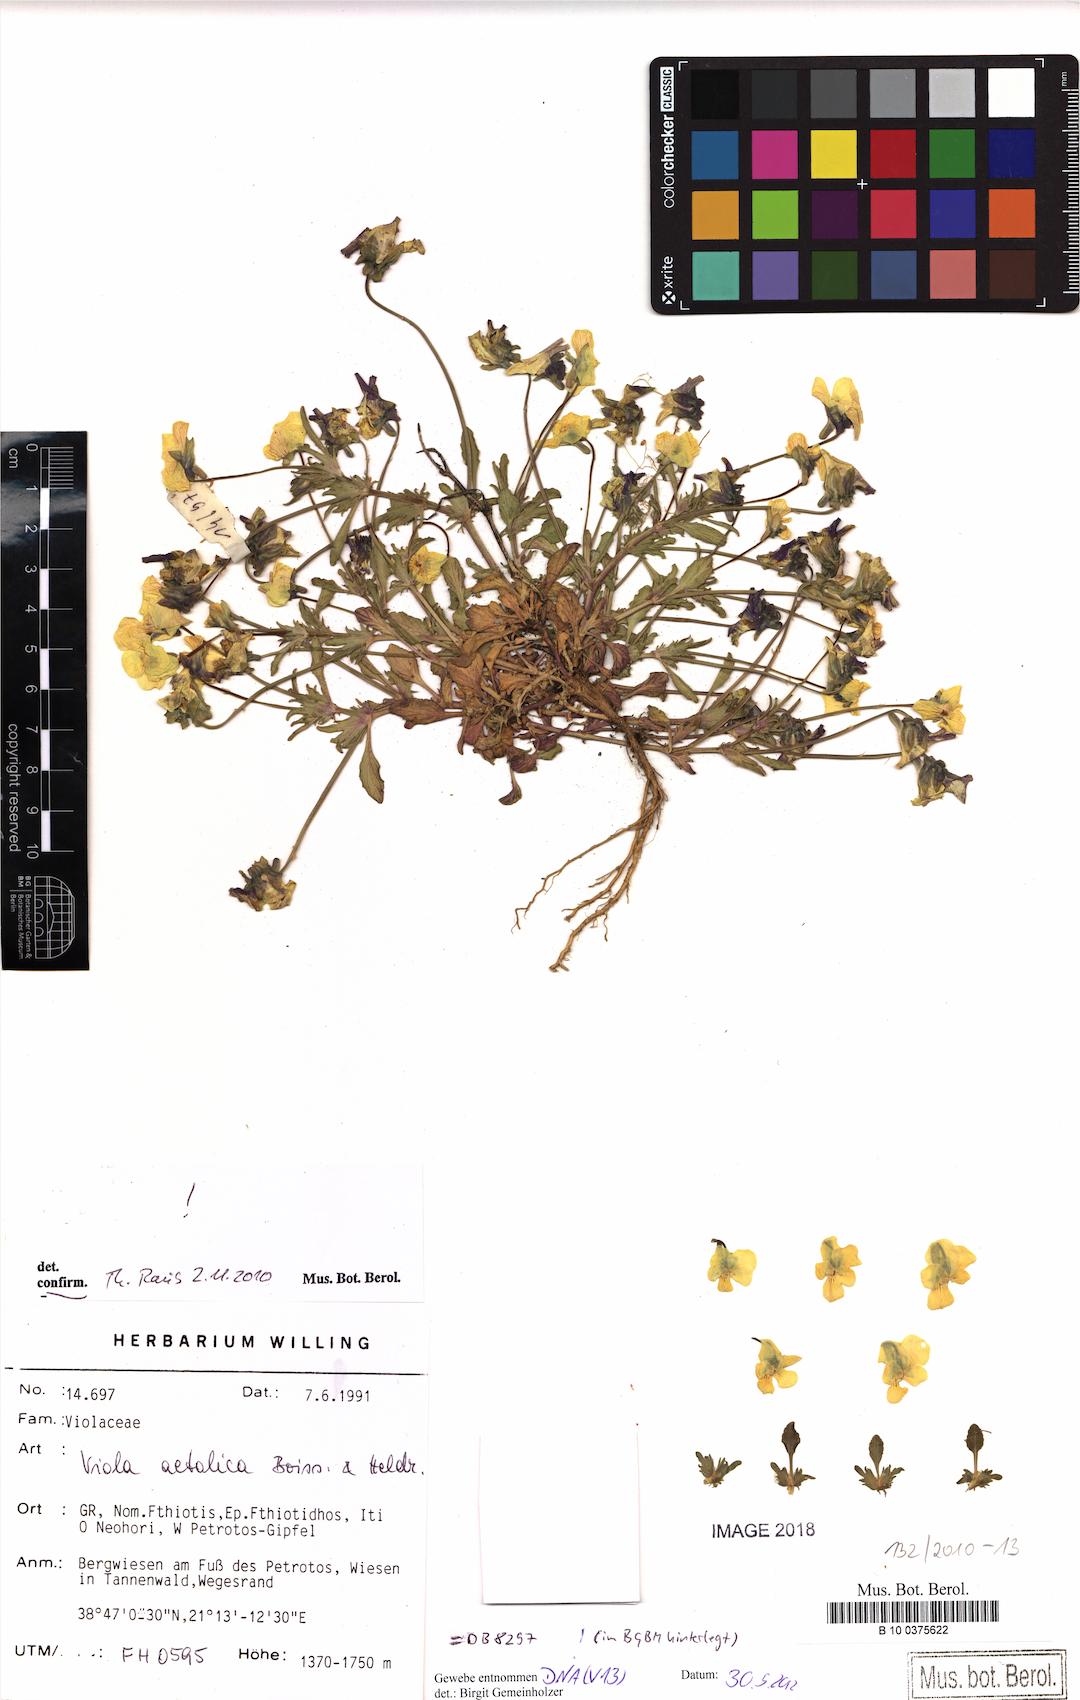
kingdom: Plantae
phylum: Tracheophyta
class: Magnoliopsida
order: Malpighiales
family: Violaceae
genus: Viola
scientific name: Viola aetolica
